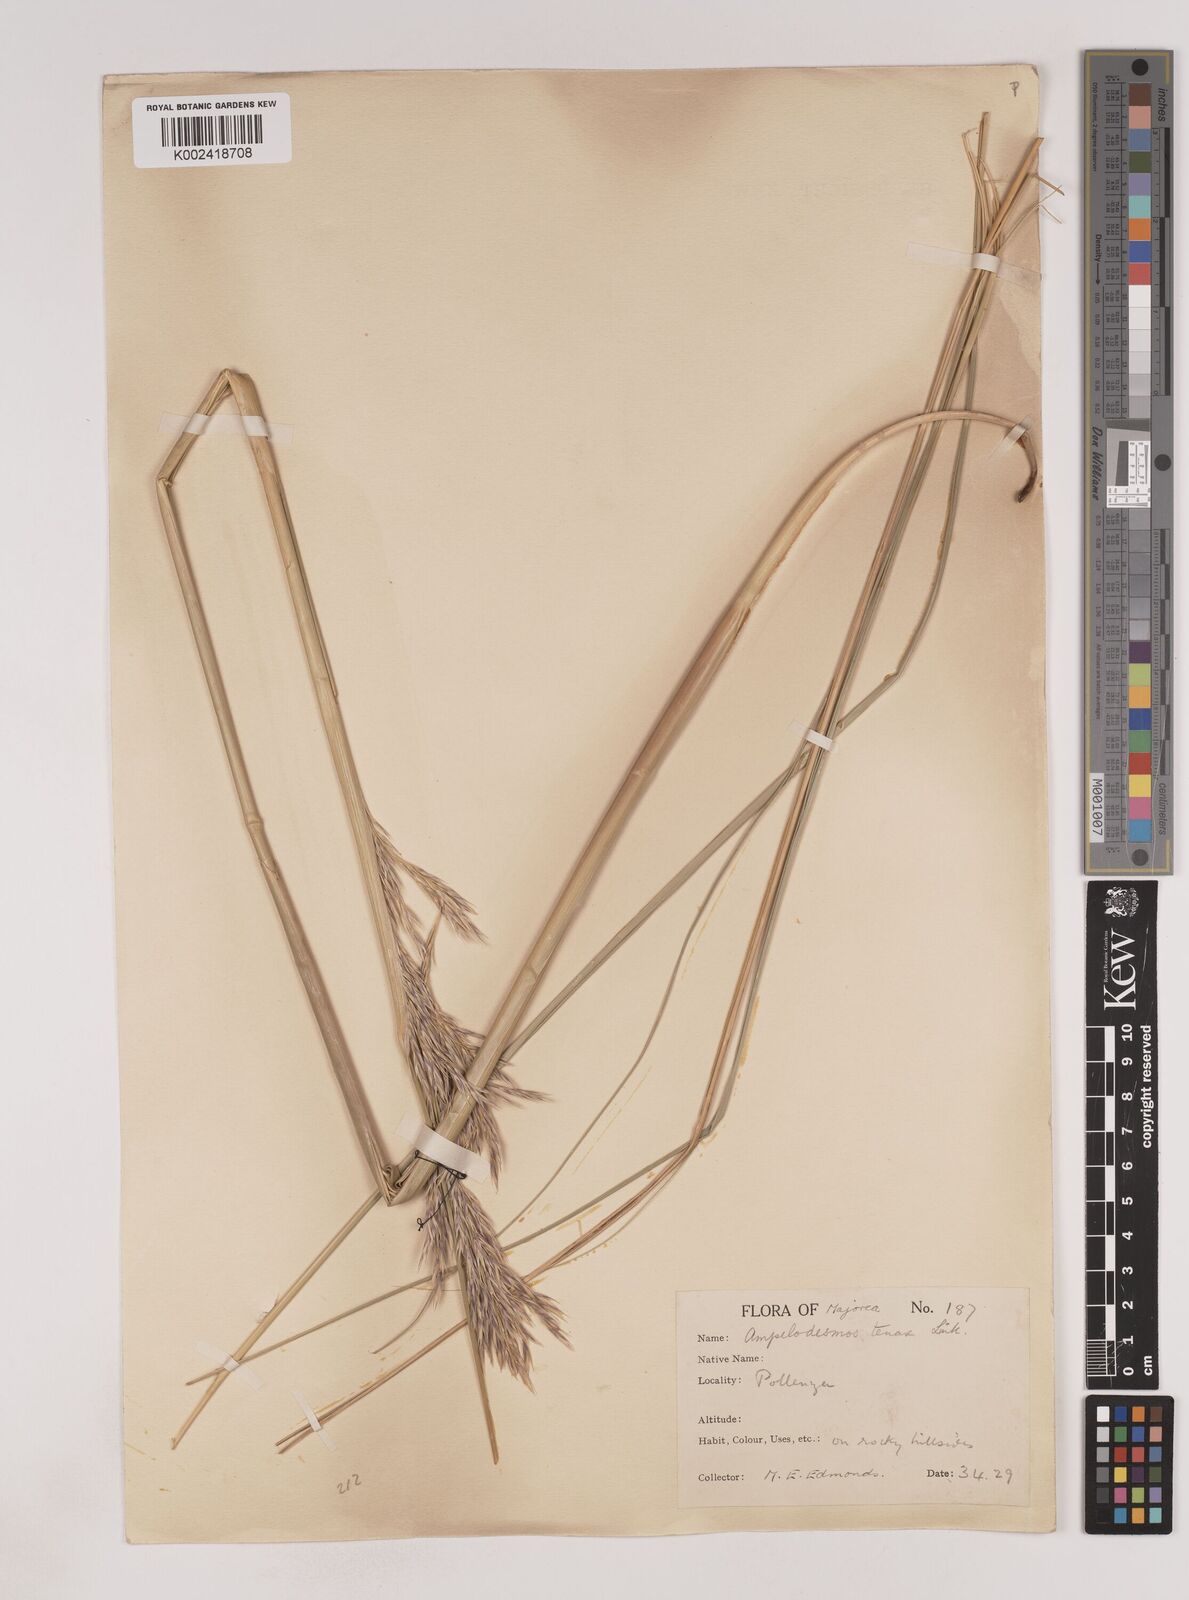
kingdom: Plantae
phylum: Tracheophyta
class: Liliopsida
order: Poales
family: Poaceae
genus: Ampelodesmos
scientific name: Ampelodesmos mauritanicus
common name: Mauritanian grass
